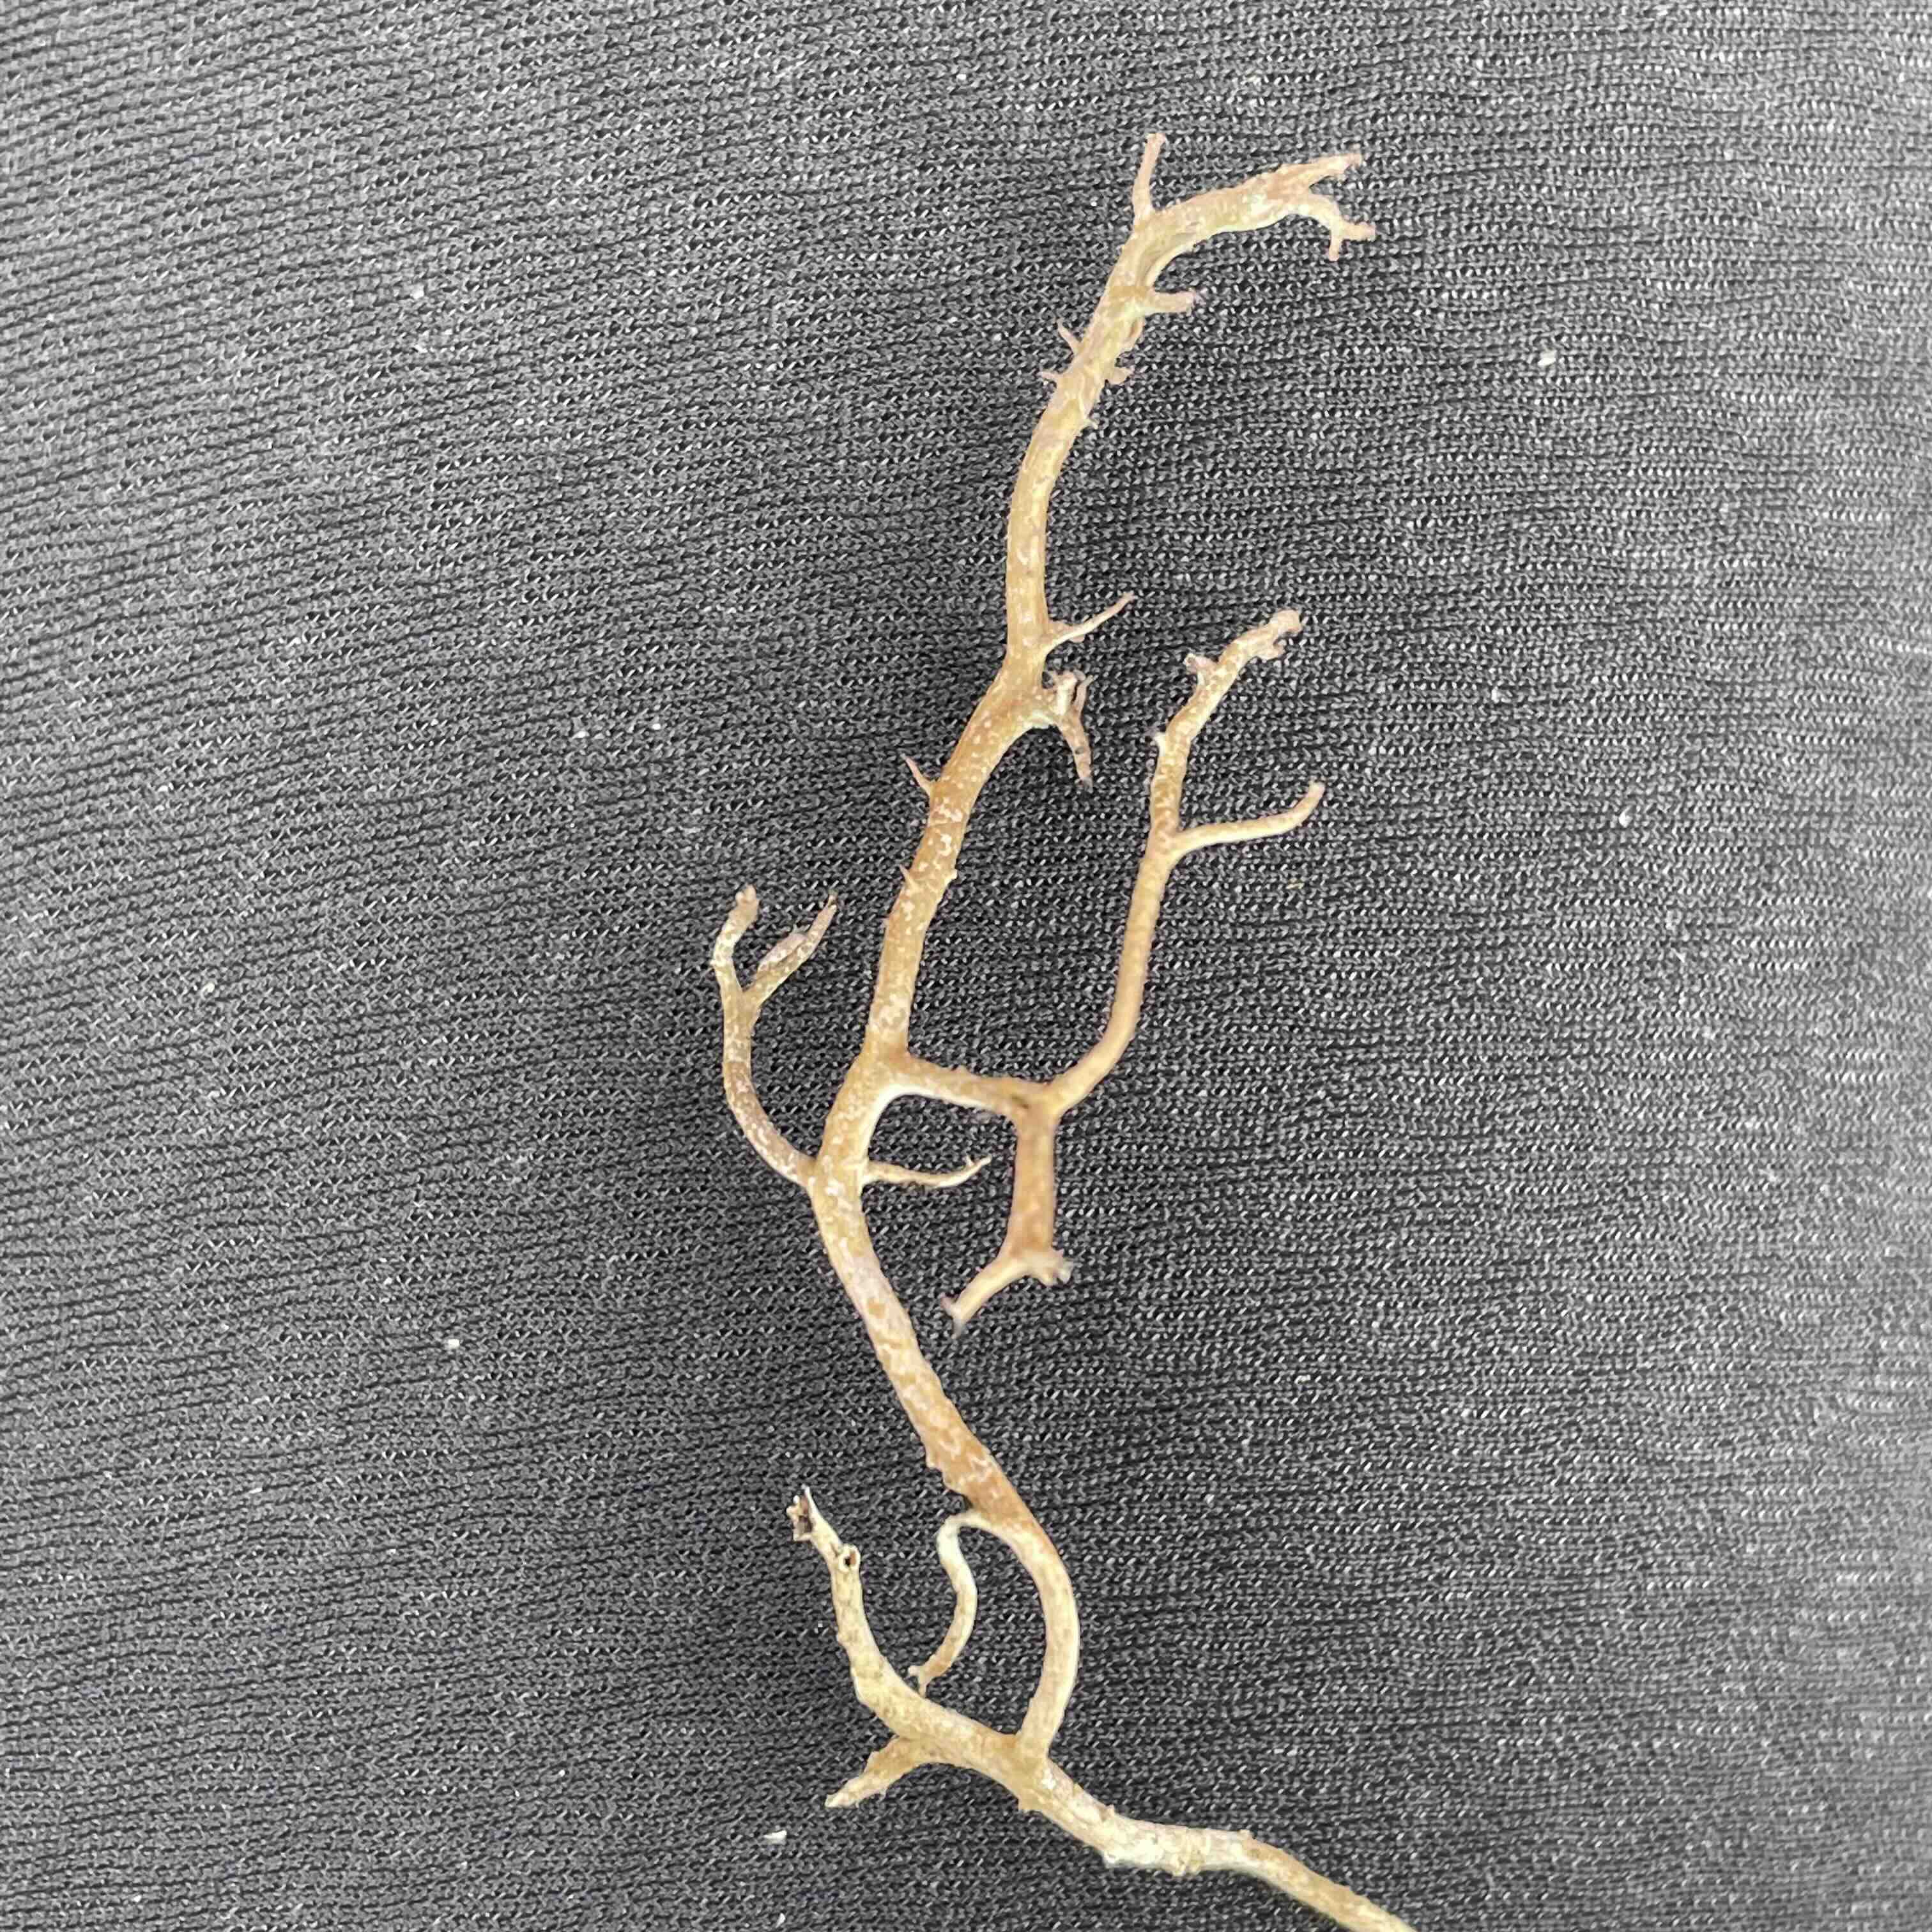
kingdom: Fungi
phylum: Ascomycota
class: Lecanoromycetes
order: Lecanorales
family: Cladoniaceae
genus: Cladonia
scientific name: Cladonia furcata
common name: kløftet bægerlav
